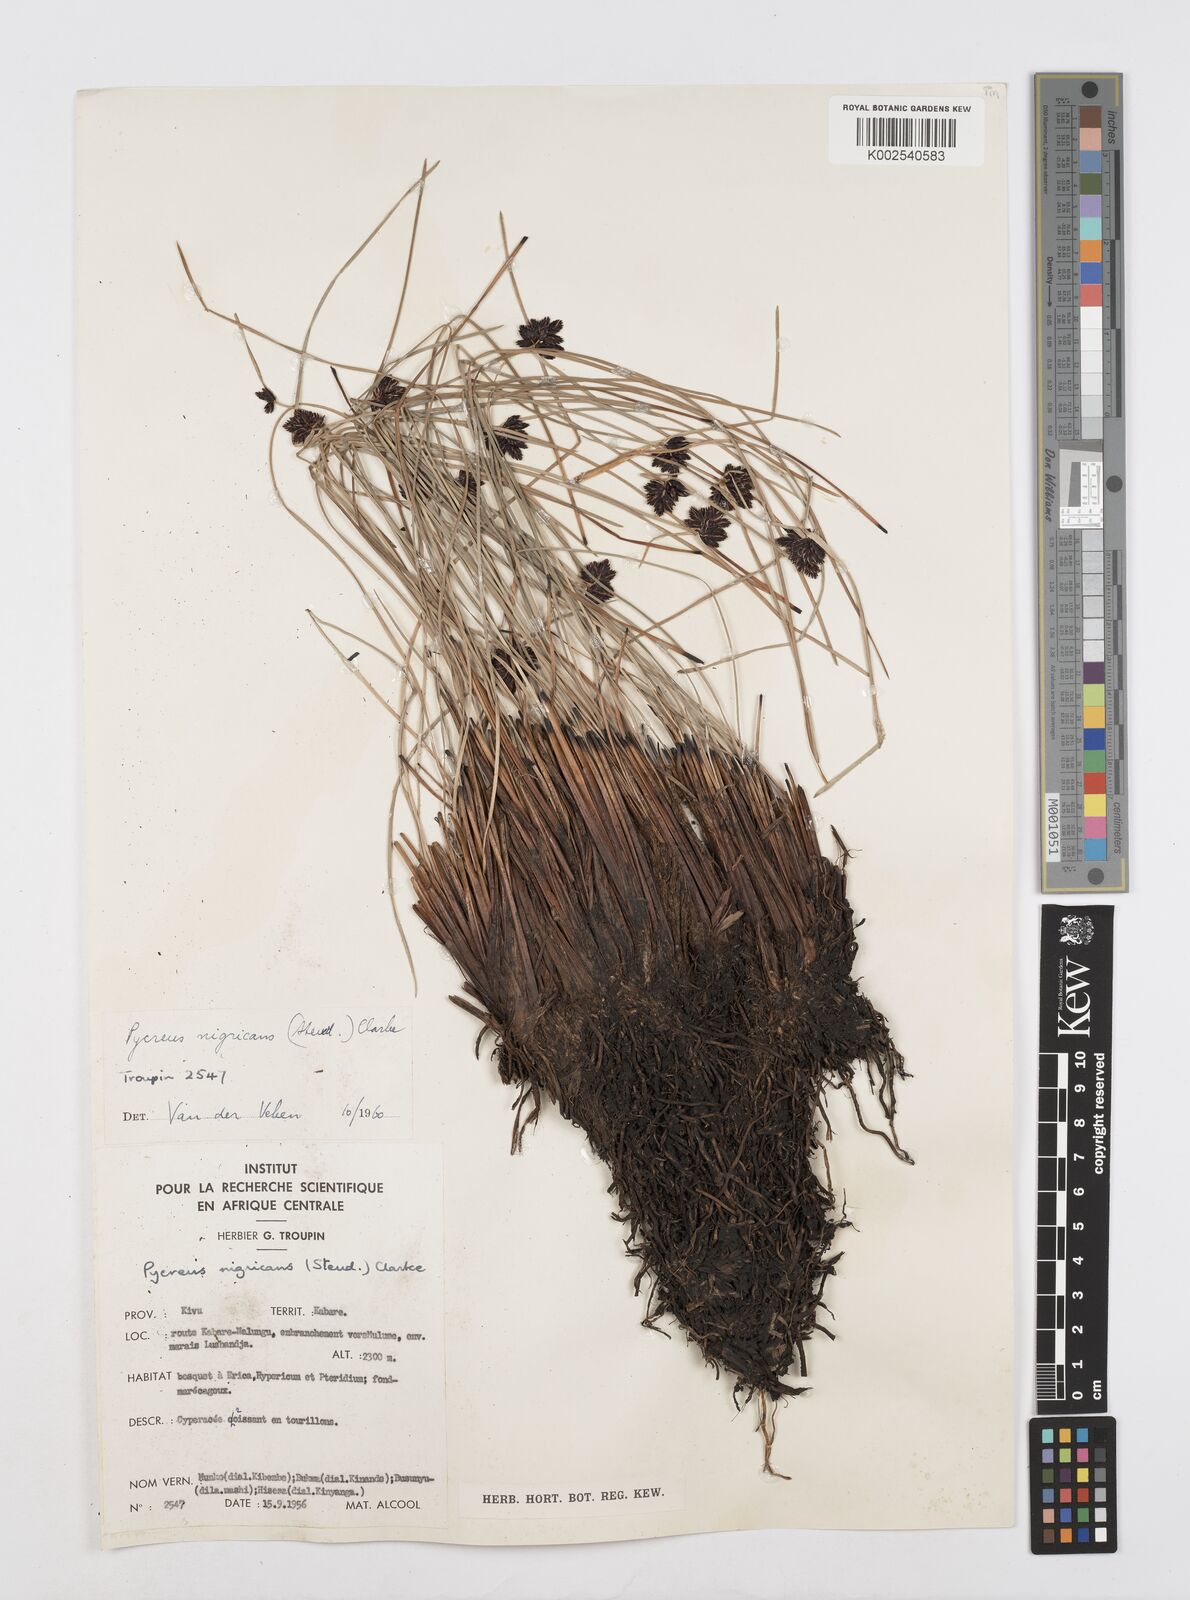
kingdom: Plantae
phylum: Tracheophyta
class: Liliopsida
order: Poales
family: Cyperaceae
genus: Cyperus
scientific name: Cyperus nigricans
